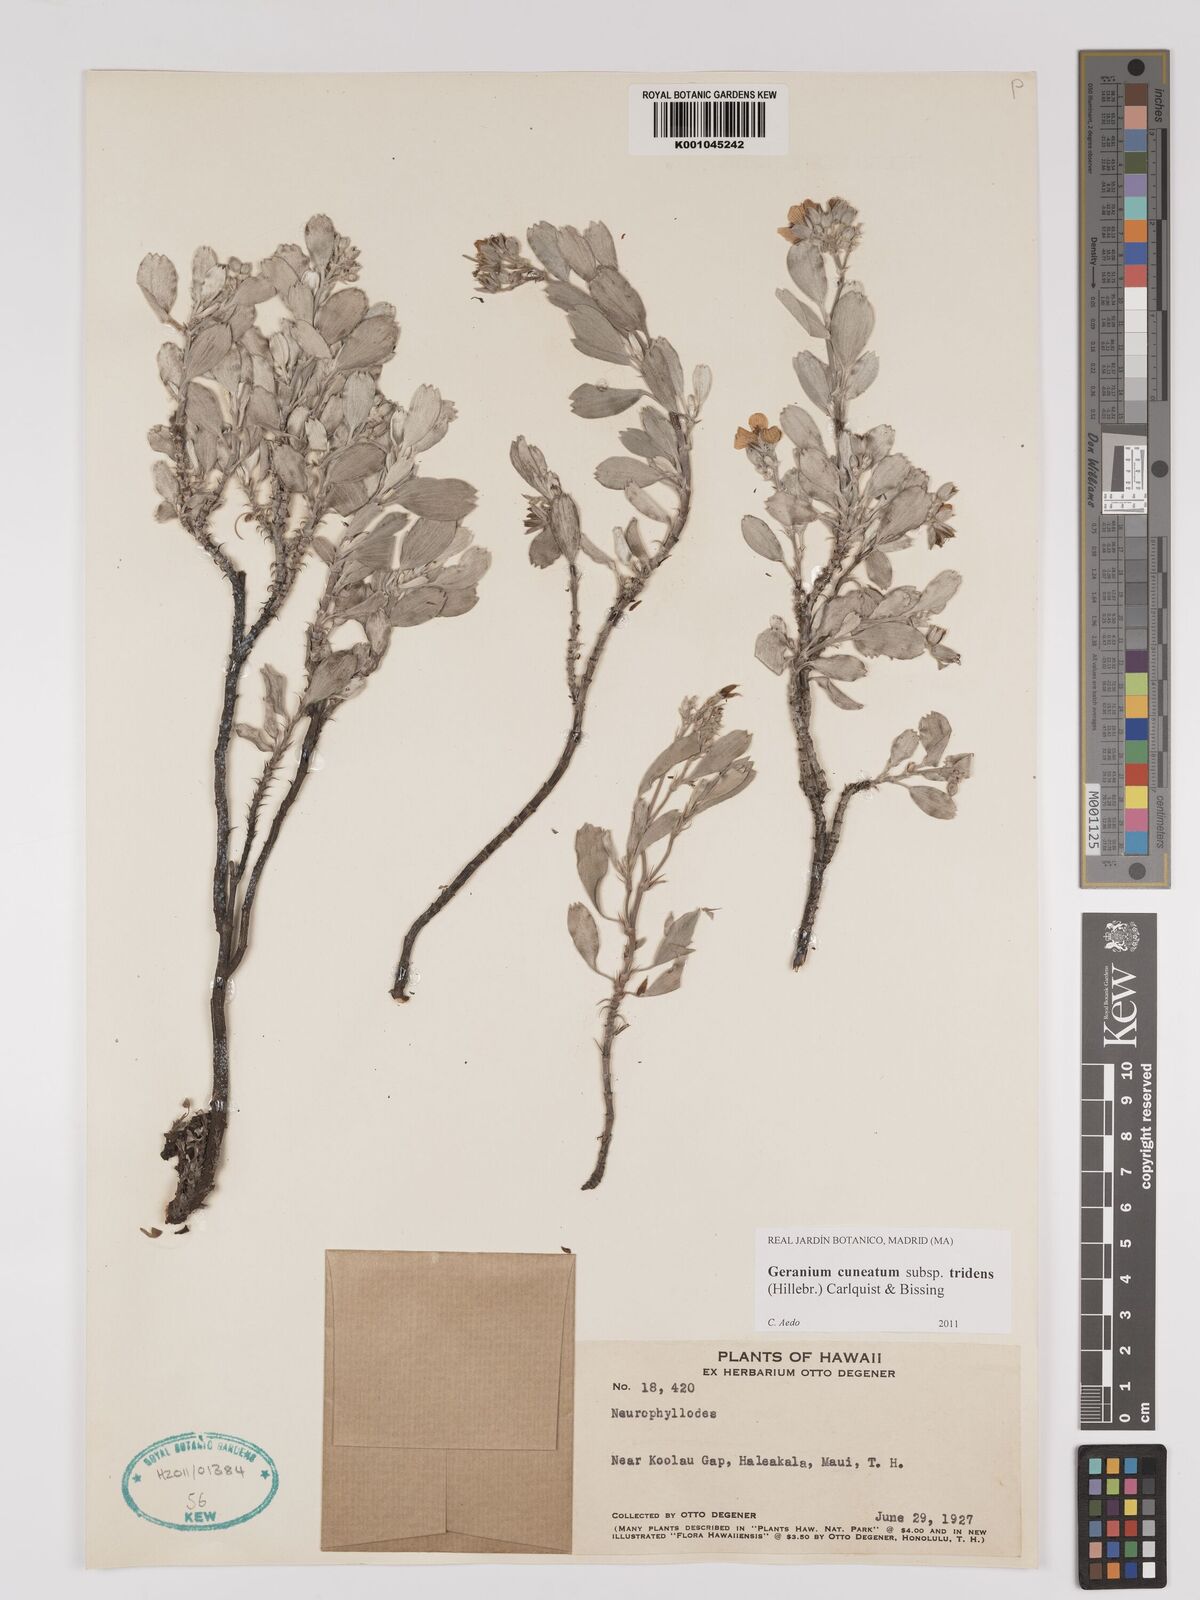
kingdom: Plantae
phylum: Tracheophyta
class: Magnoliopsida
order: Geraniales
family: Geraniaceae
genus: Geranium
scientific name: Geranium cuneatum
